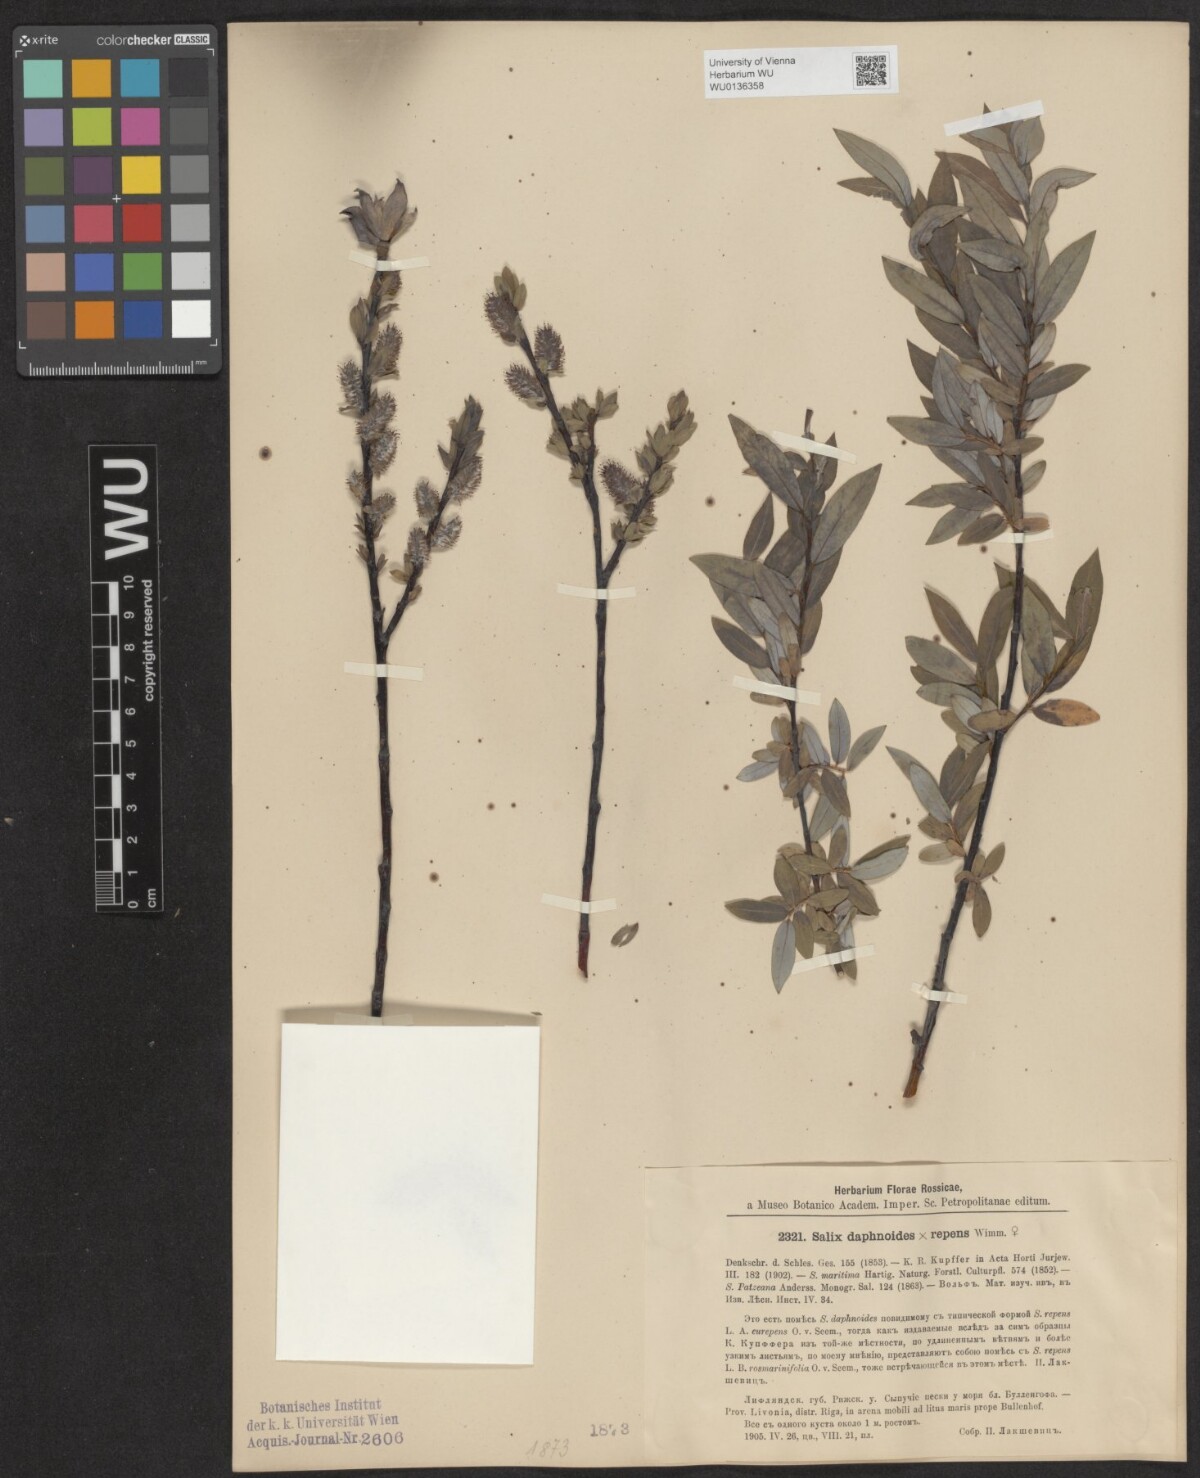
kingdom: Plantae
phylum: Tracheophyta
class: Magnoliopsida
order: Malpighiales
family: Salicaceae
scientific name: Salicaceae
